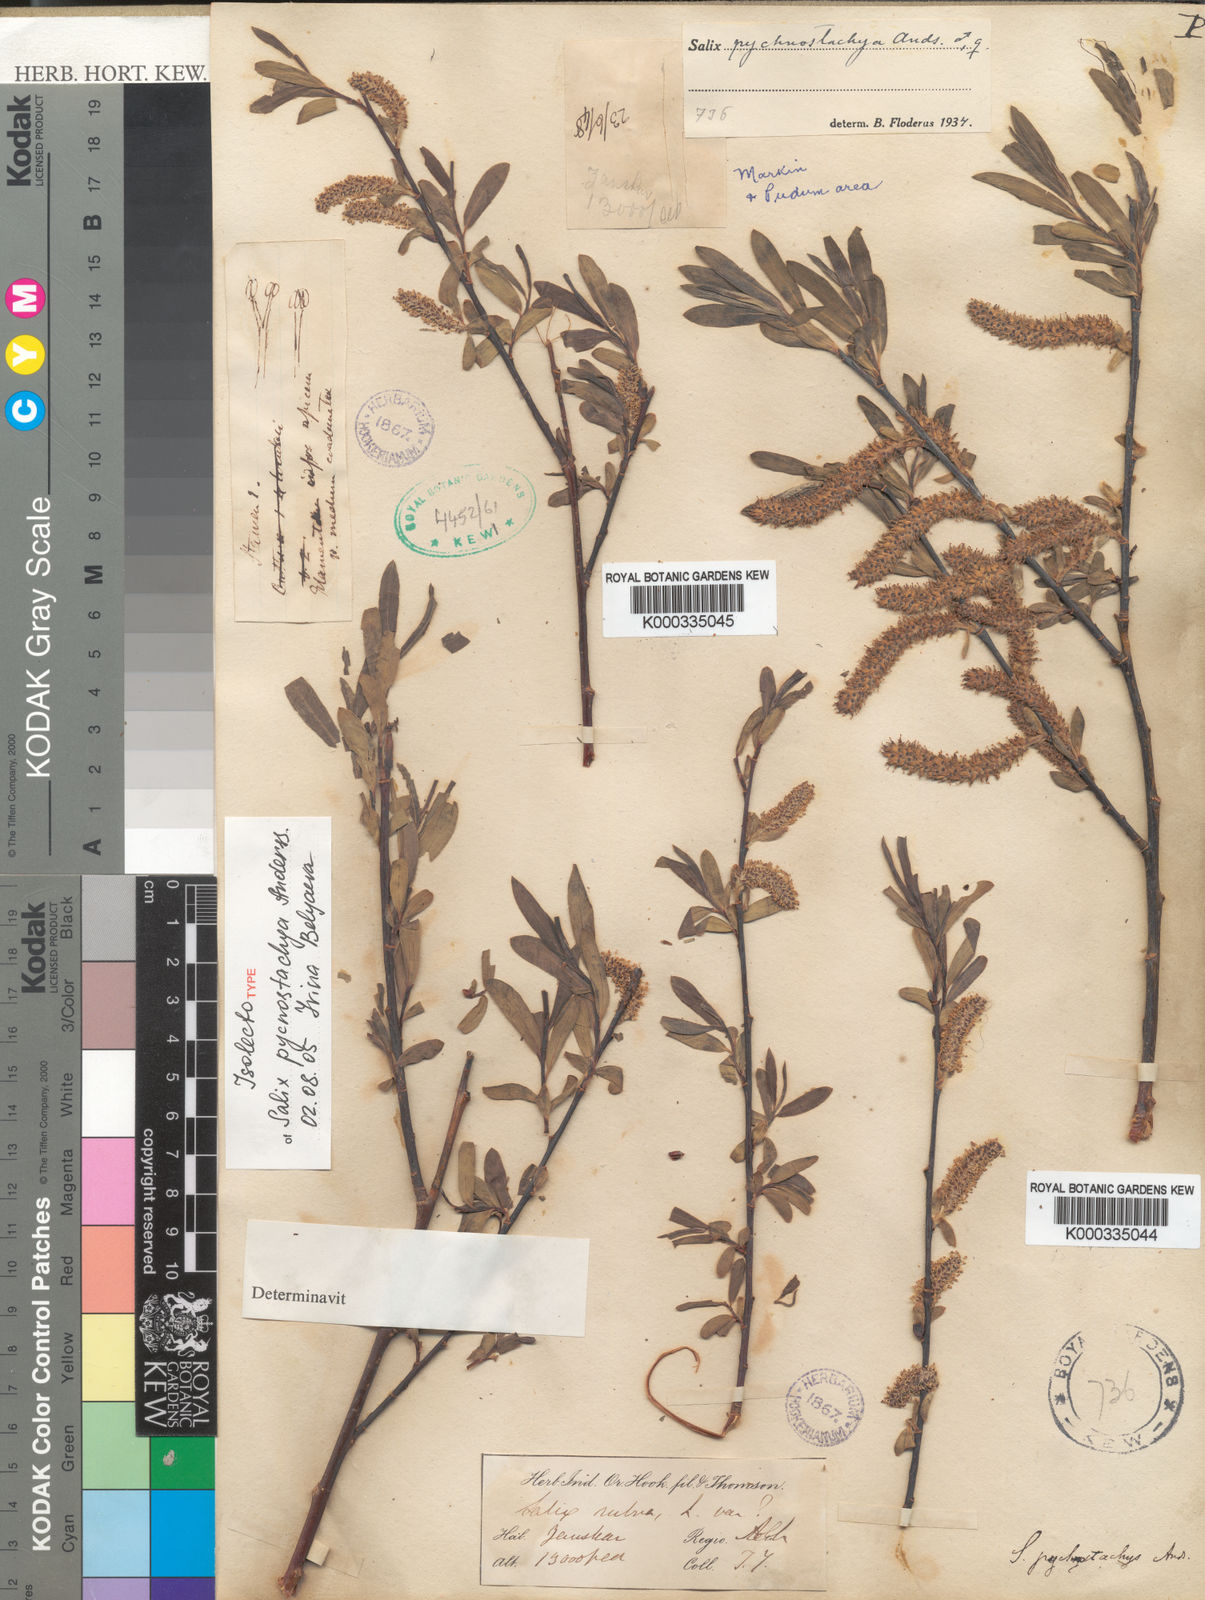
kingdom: Plantae
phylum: Tracheophyta
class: Magnoliopsida
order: Malpighiales
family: Salicaceae
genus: Salix
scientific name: Salix pycnostachya
